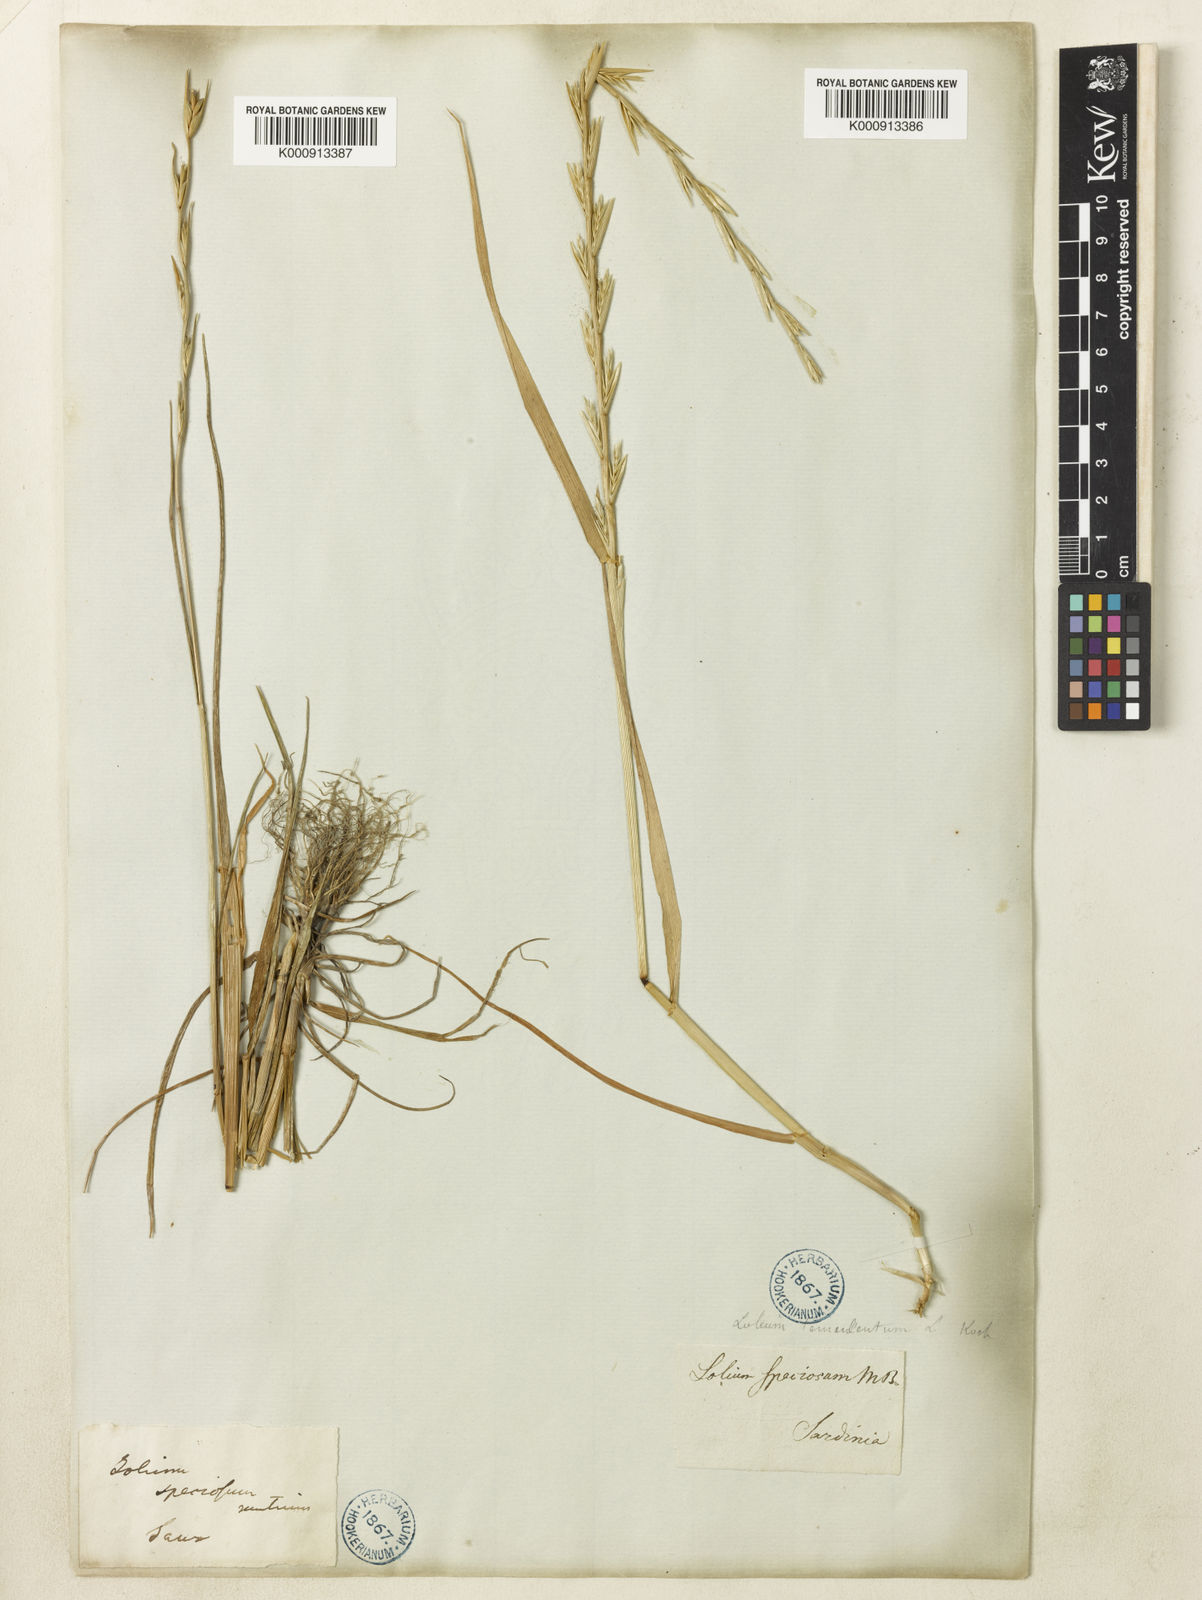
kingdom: Plantae
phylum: Tracheophyta
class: Liliopsida
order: Poales
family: Poaceae
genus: Lolium
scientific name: Lolium temulentum
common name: Darnel
